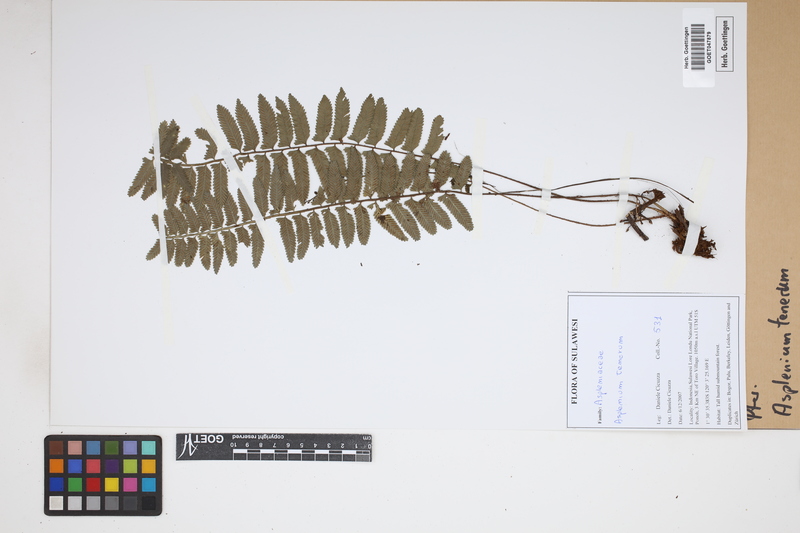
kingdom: Plantae
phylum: Tracheophyta
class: Polypodiopsida
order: Polypodiales
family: Aspleniaceae
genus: Asplenium
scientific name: Asplenium tenerum
